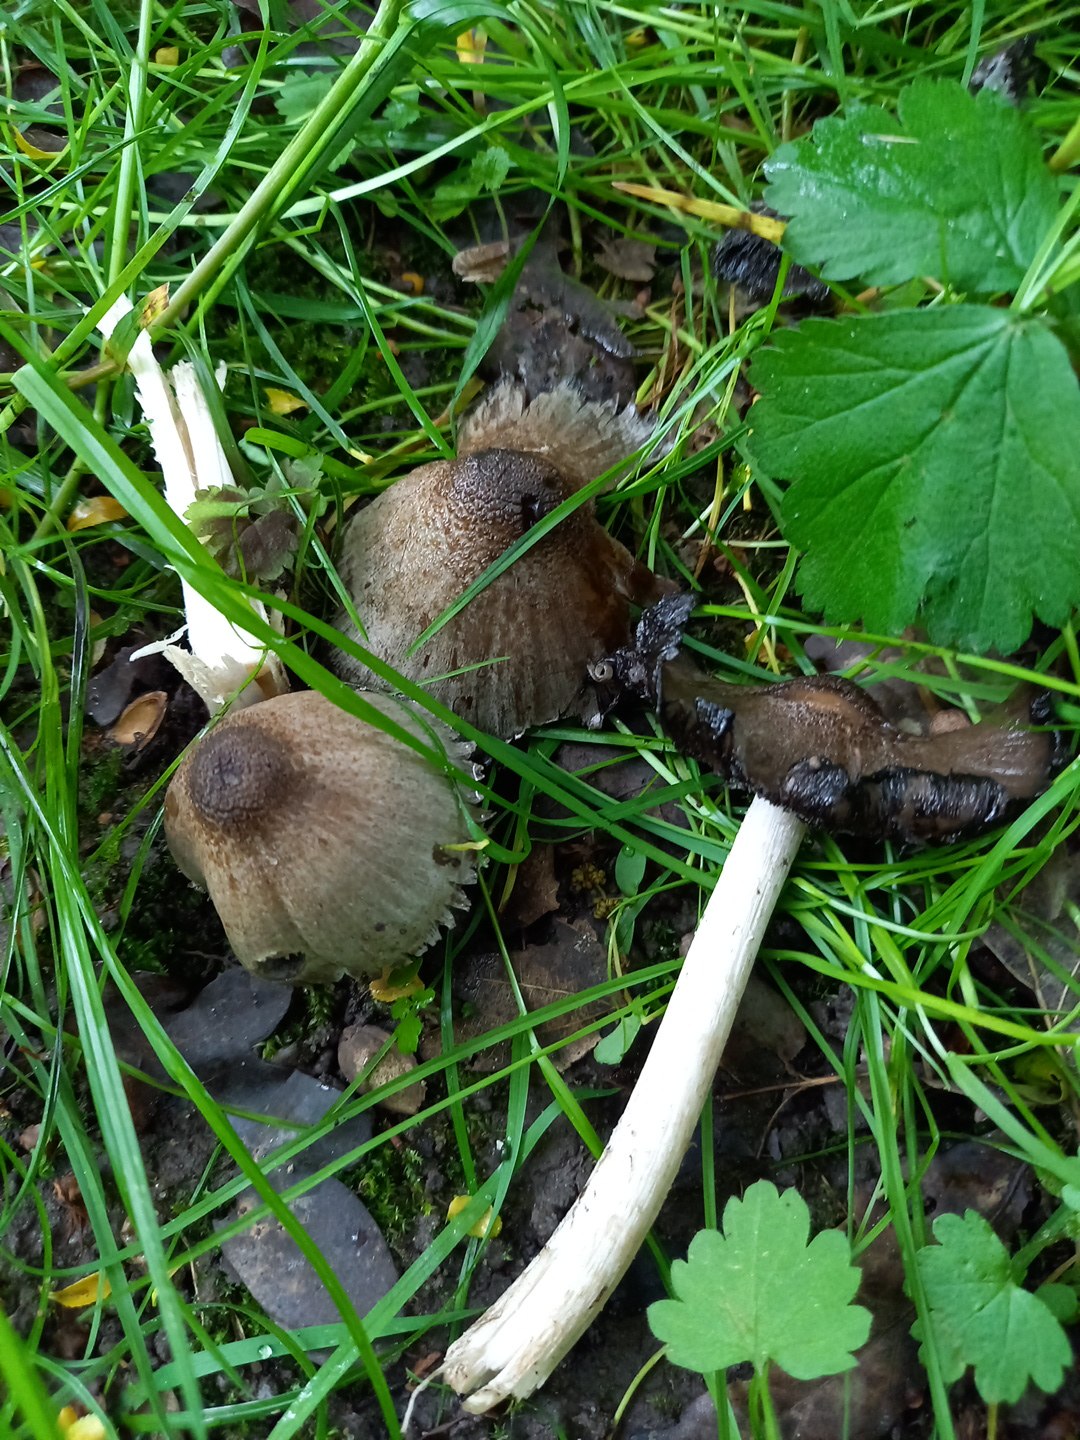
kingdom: Fungi
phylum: Basidiomycota
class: Agaricomycetes
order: Agaricales
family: Psathyrellaceae
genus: Coprinopsis
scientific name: Coprinopsis atramentaria
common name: almindelig blækhat
